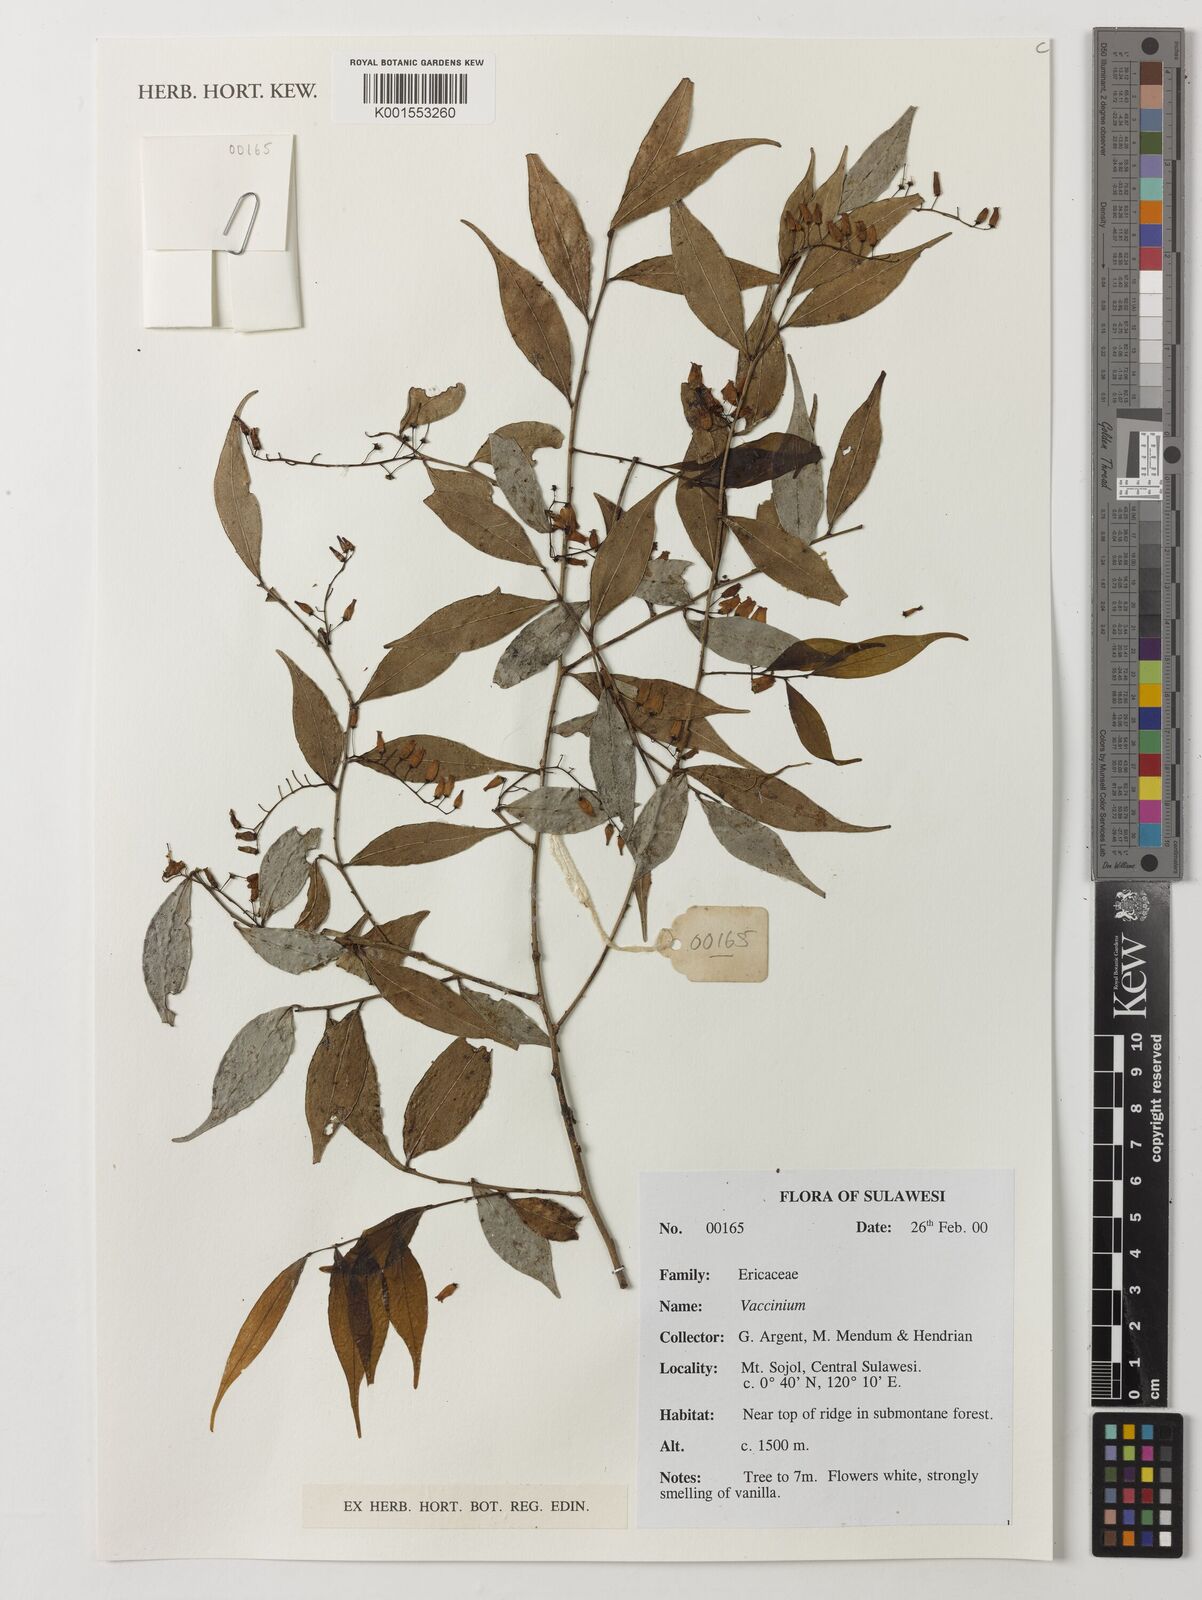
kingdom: Plantae
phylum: Tracheophyta
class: Magnoliopsida
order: Ericales
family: Ericaceae
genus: Vaccinium
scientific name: Vaccinium
